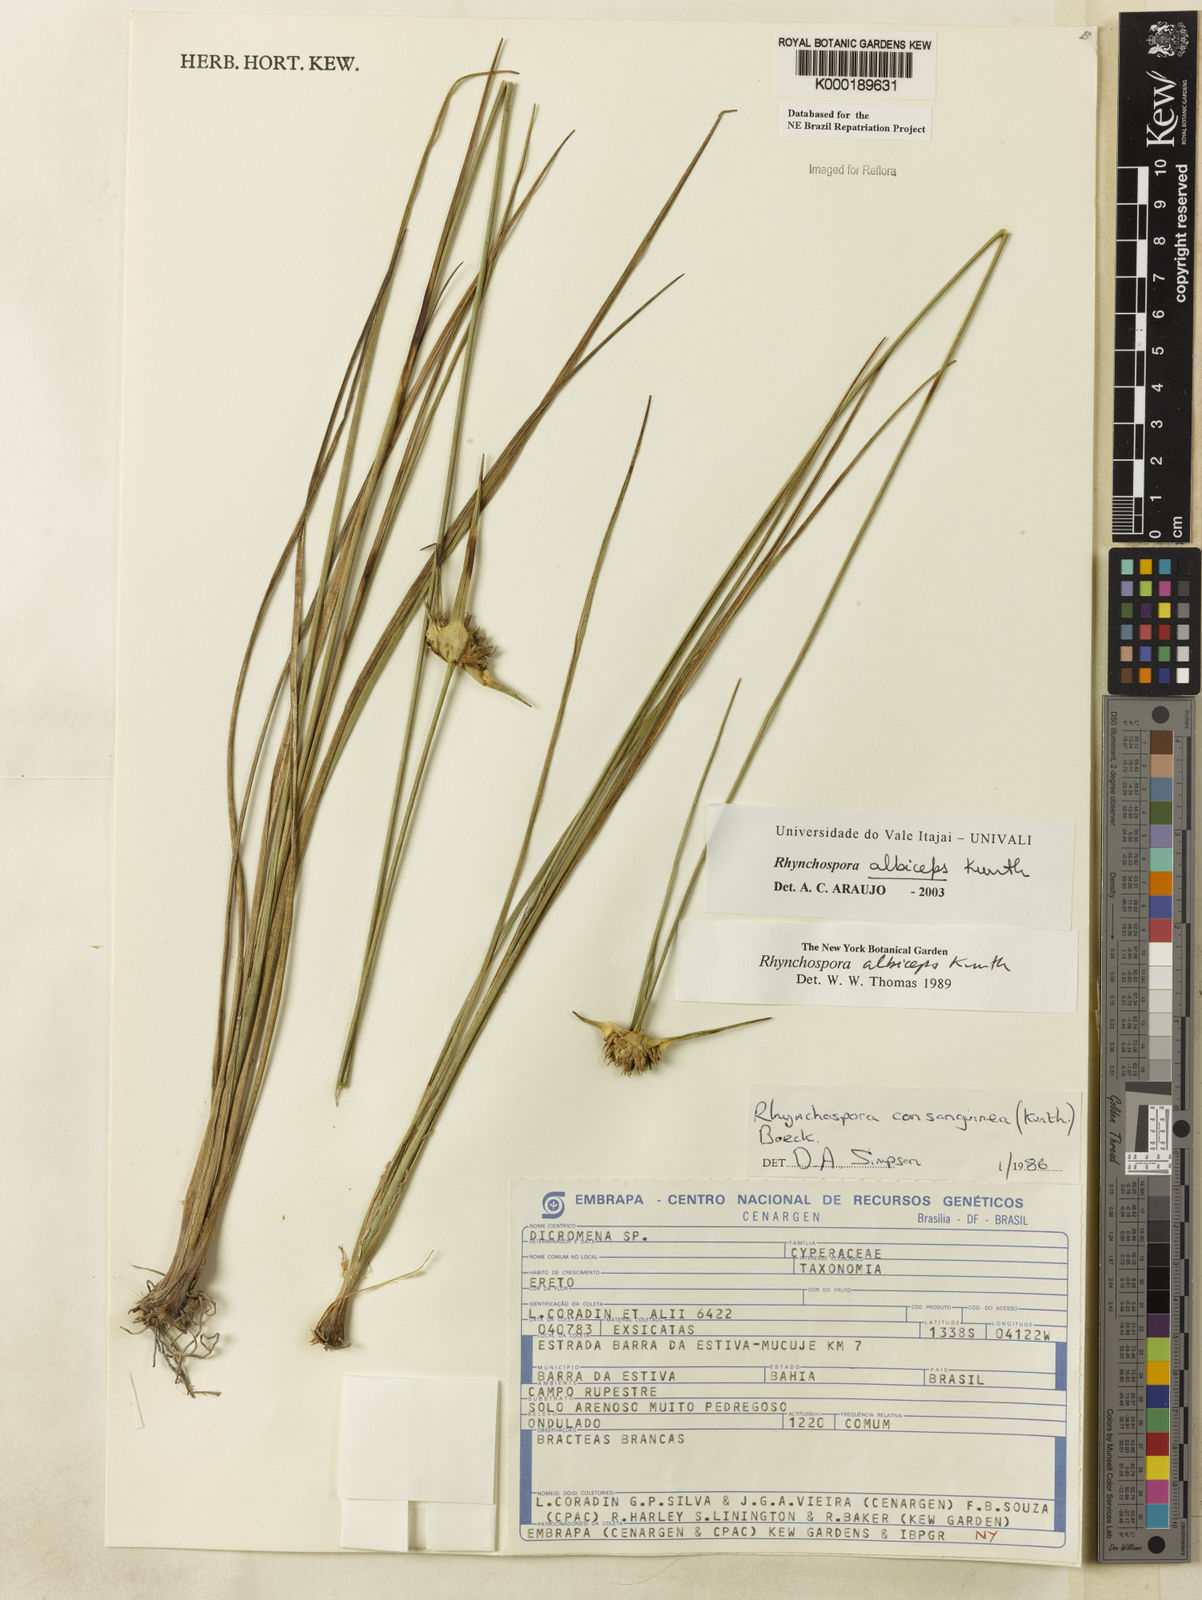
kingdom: Plantae
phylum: Tracheophyta
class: Liliopsida
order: Poales
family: Cyperaceae
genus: Rhynchospora
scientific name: Rhynchospora albiceps
